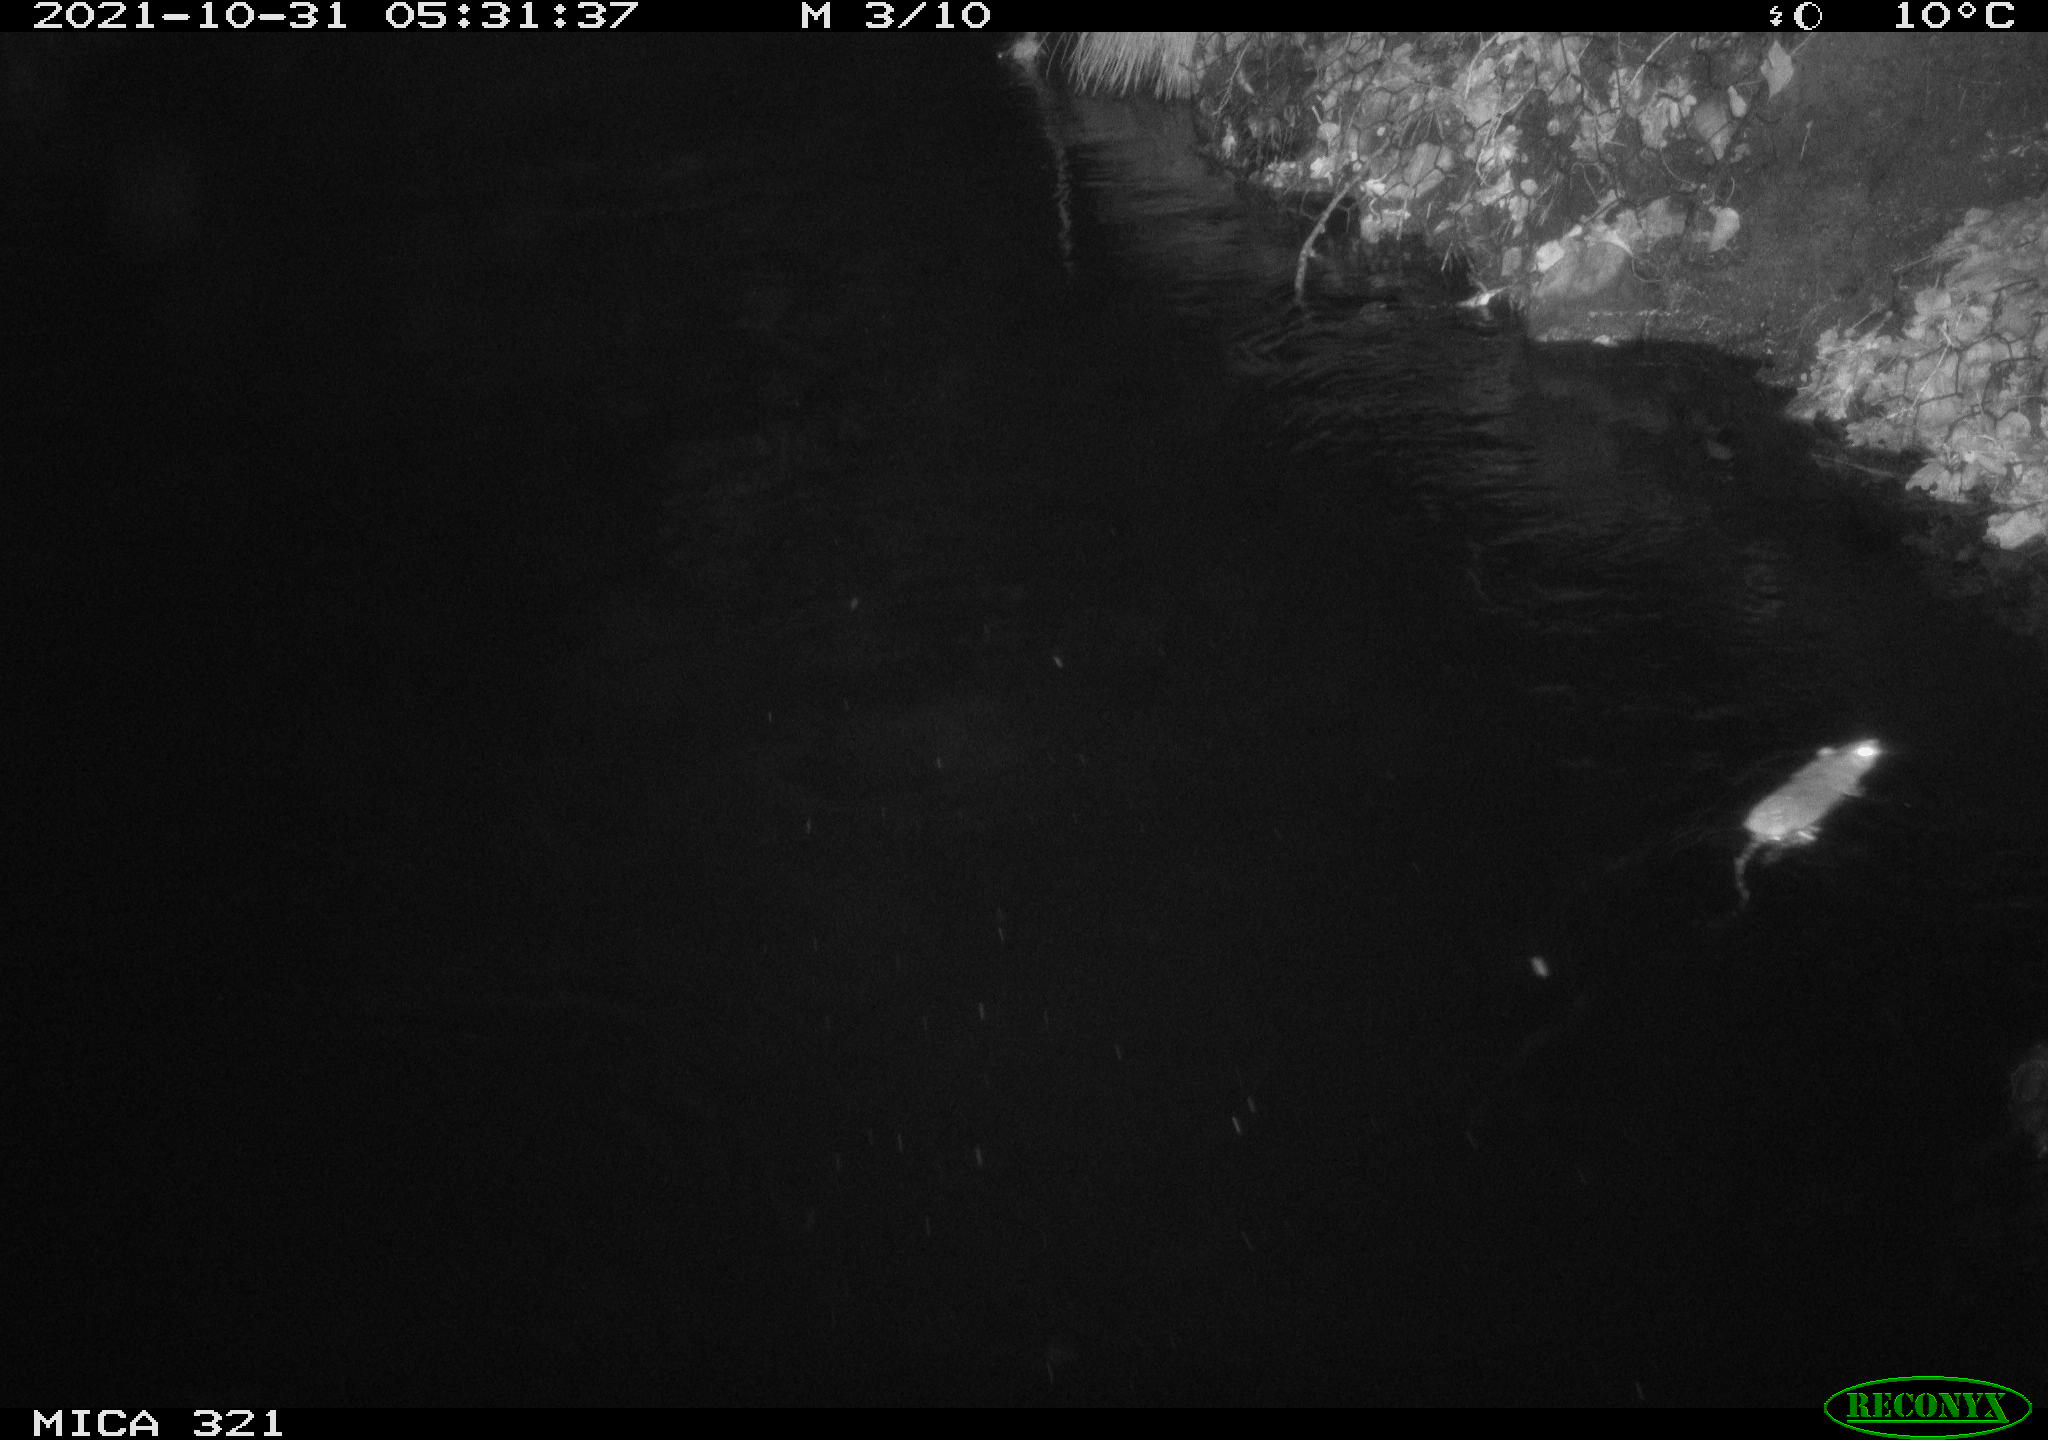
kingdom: Animalia
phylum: Chordata
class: Mammalia
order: Rodentia
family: Muridae
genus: Rattus
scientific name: Rattus norvegicus
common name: Brown rat
